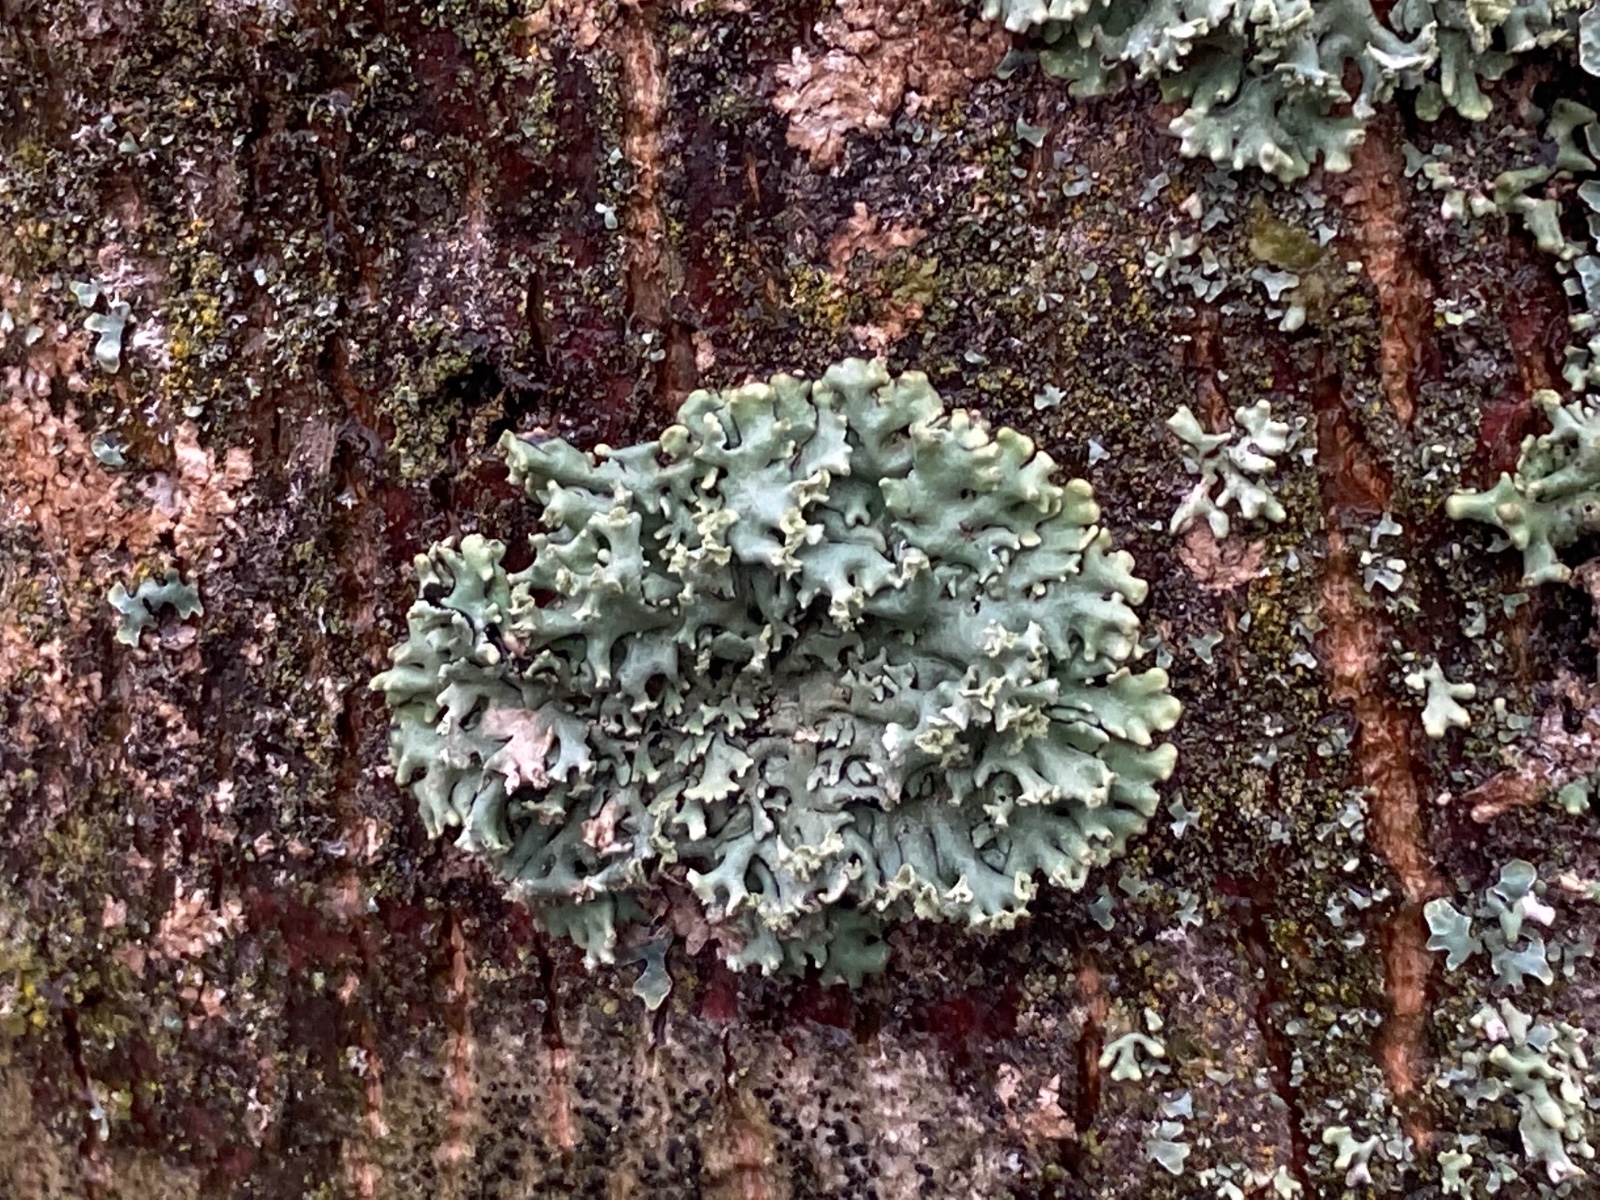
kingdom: Fungi
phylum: Ascomycota
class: Lecanoromycetes
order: Lecanorales
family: Parmeliaceae
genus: Hypogymnia
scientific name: Hypogymnia physodes
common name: almindelig kvistlav
